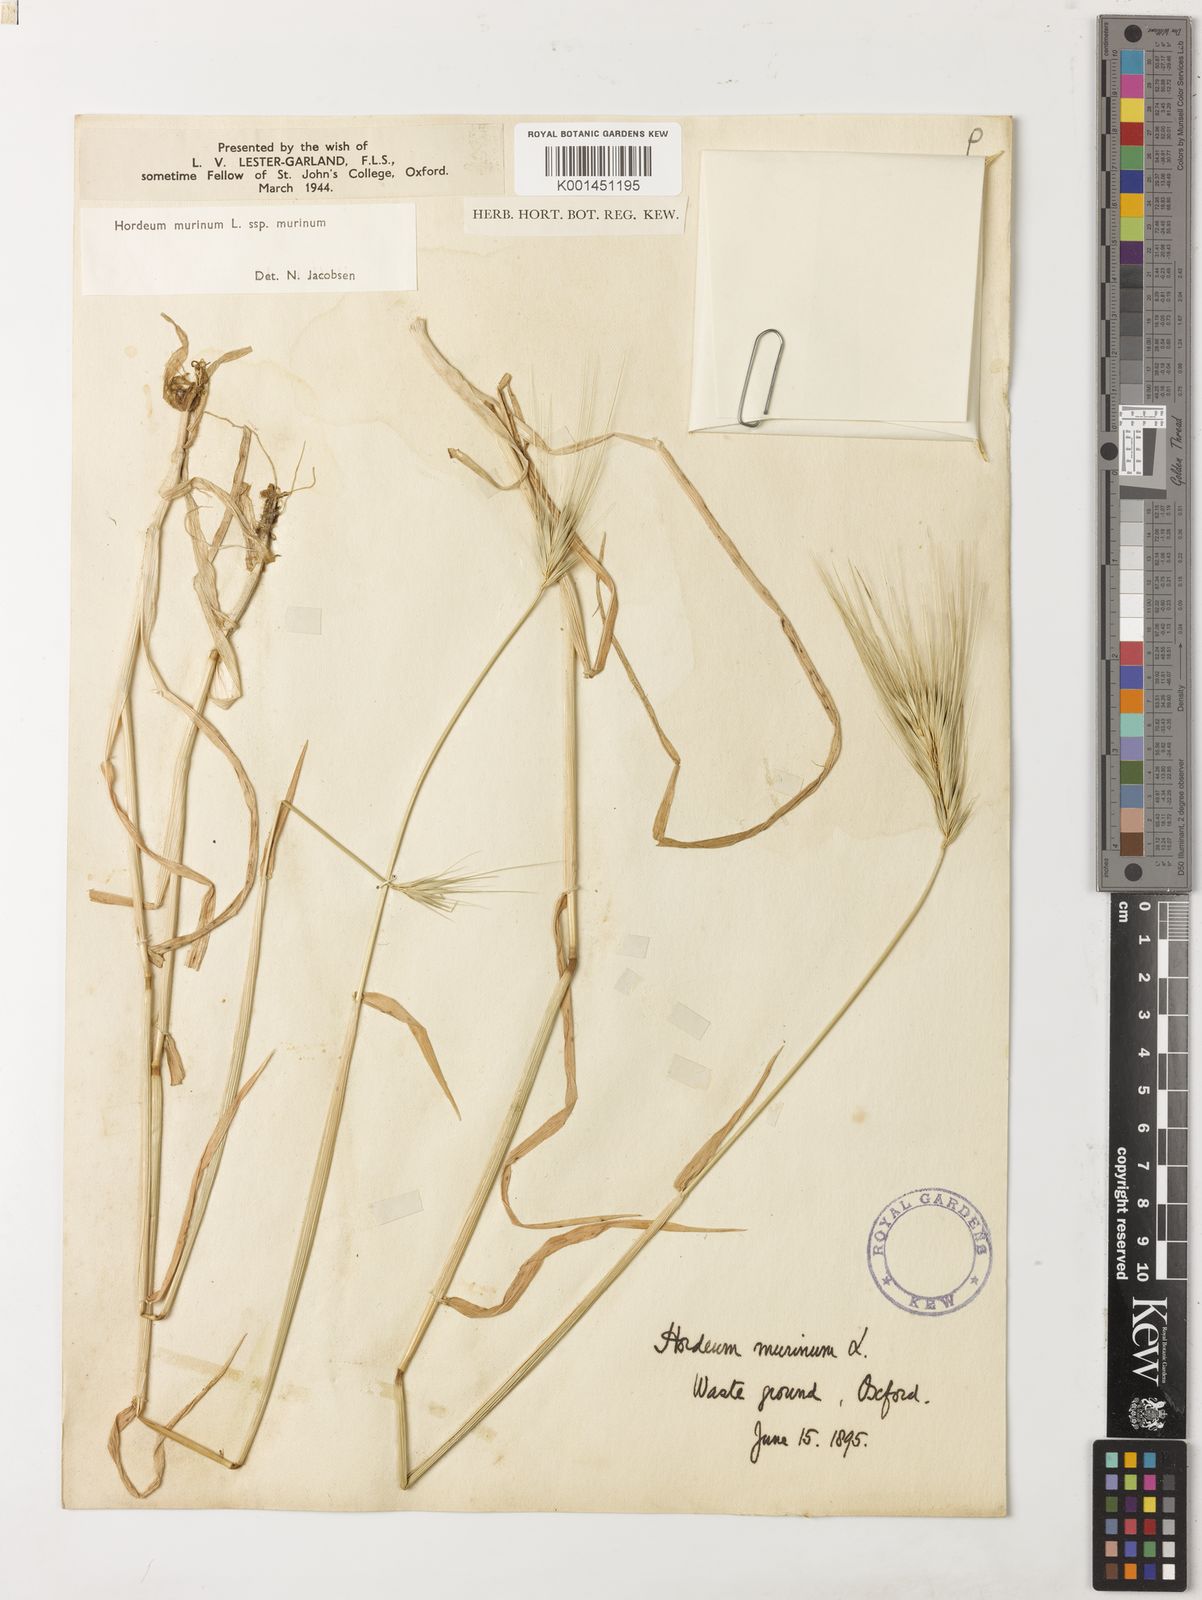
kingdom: Plantae
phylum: Tracheophyta
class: Liliopsida
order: Poales
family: Poaceae
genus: Hordeum
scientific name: Hordeum murinum
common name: Wall barley
